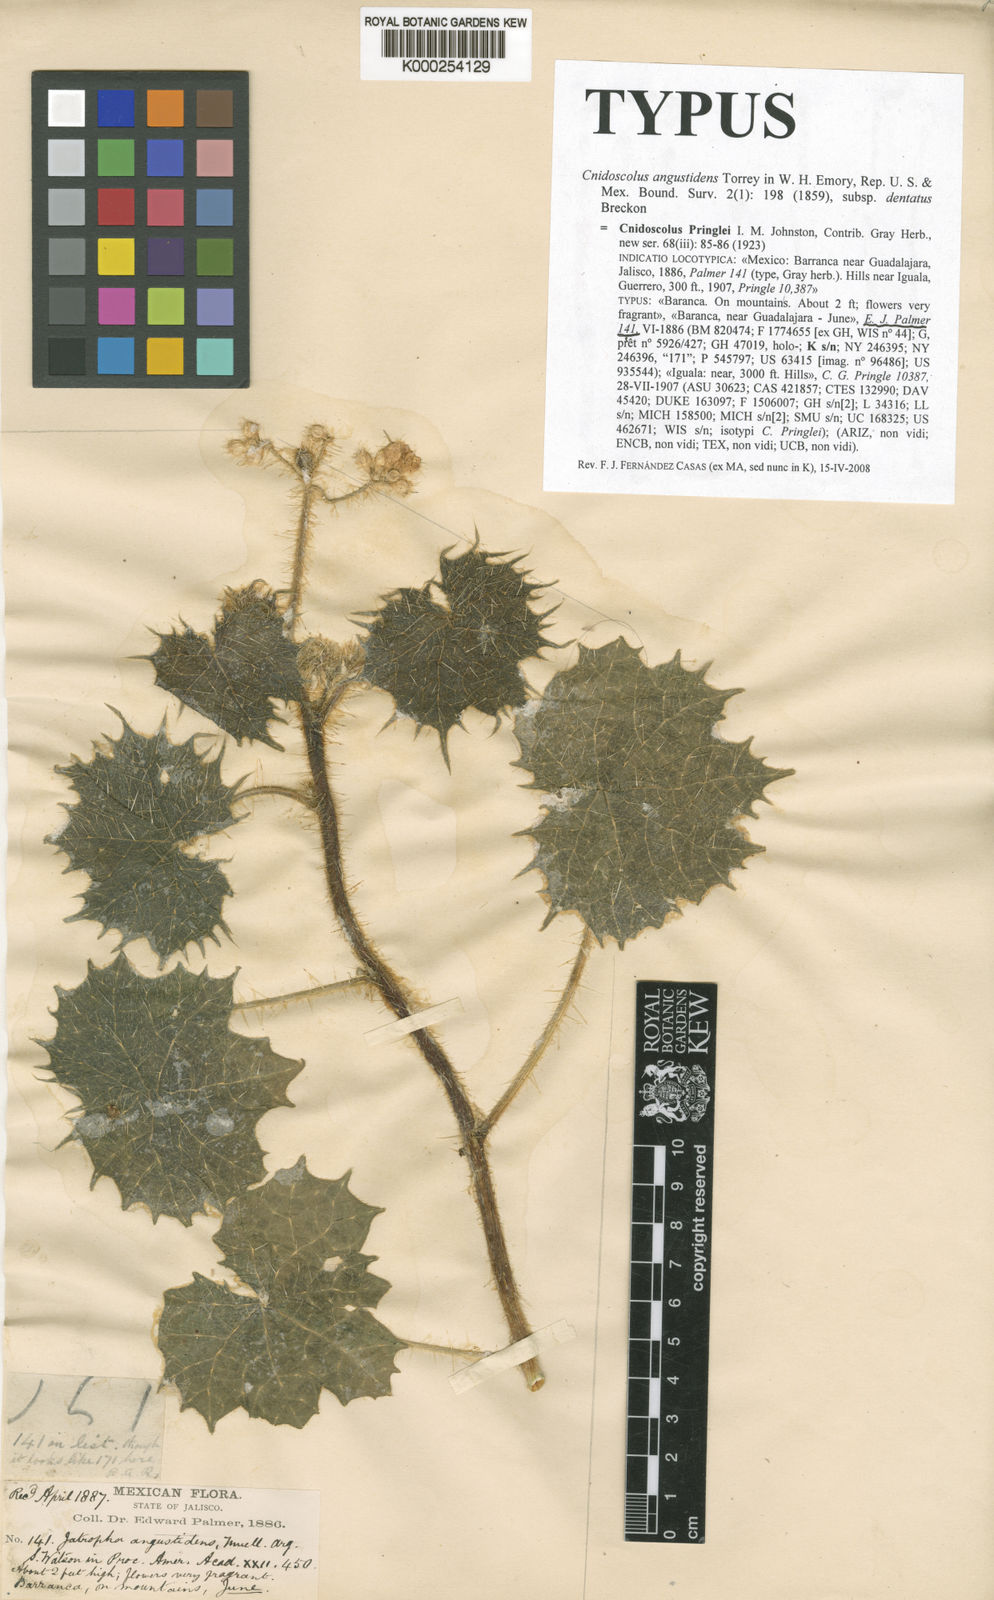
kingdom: Plantae
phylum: Tracheophyta
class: Magnoliopsida
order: Malpighiales
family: Euphorbiaceae
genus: Cnidoscolus
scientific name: Cnidoscolus angustidens
